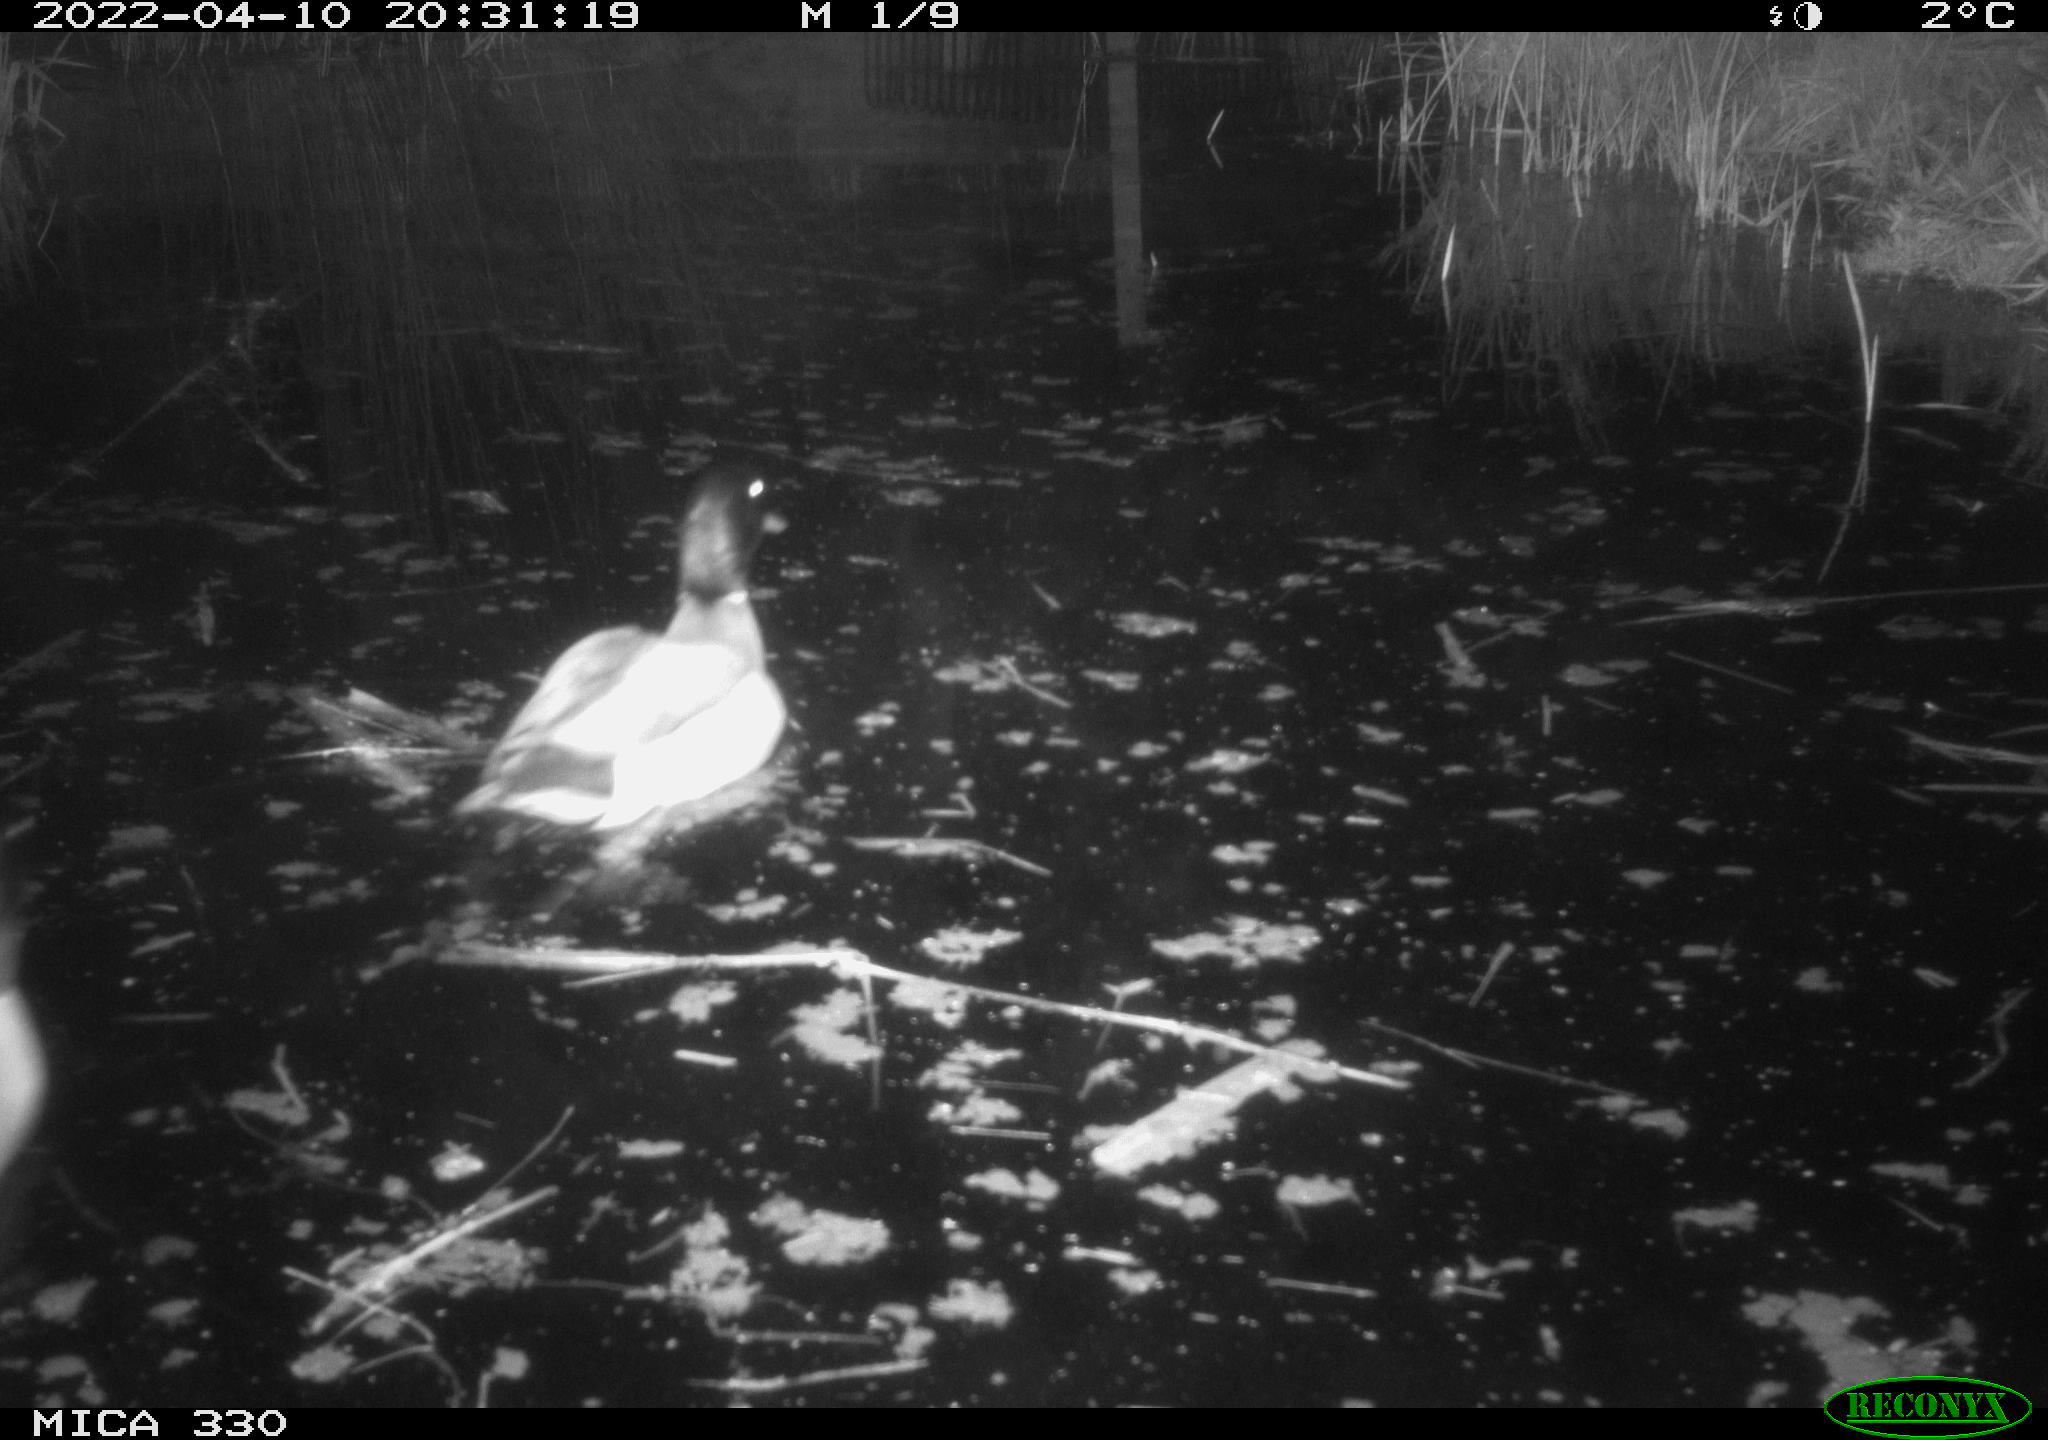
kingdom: Animalia
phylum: Chordata
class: Aves
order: Anseriformes
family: Anatidae
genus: Anas
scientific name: Anas platyrhynchos
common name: Mallard
